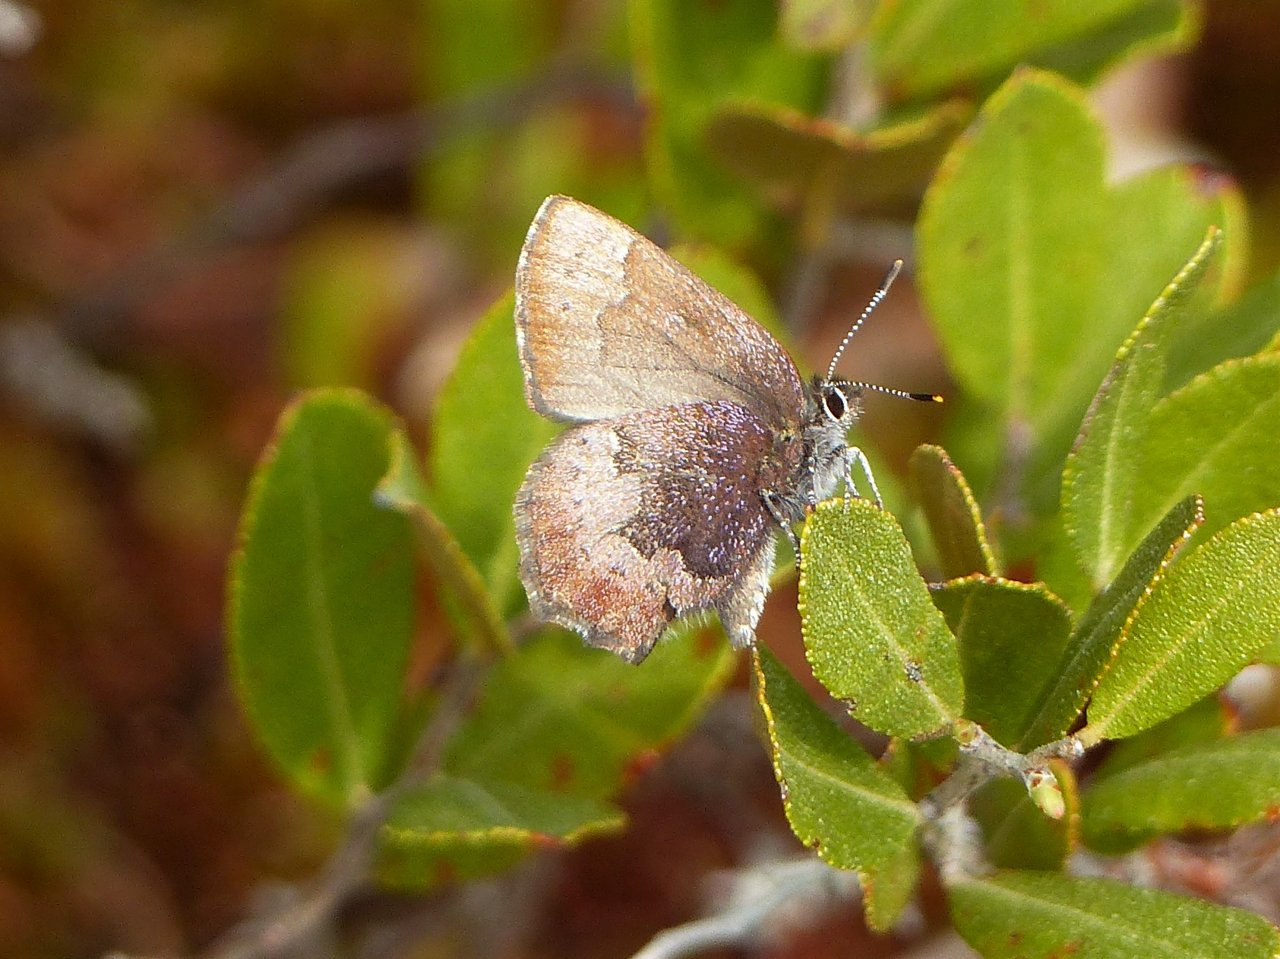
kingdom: Animalia
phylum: Arthropoda
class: Insecta
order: Lepidoptera
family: Lycaenidae
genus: Incisalia
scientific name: Incisalia irioides
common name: Brown Elfin
